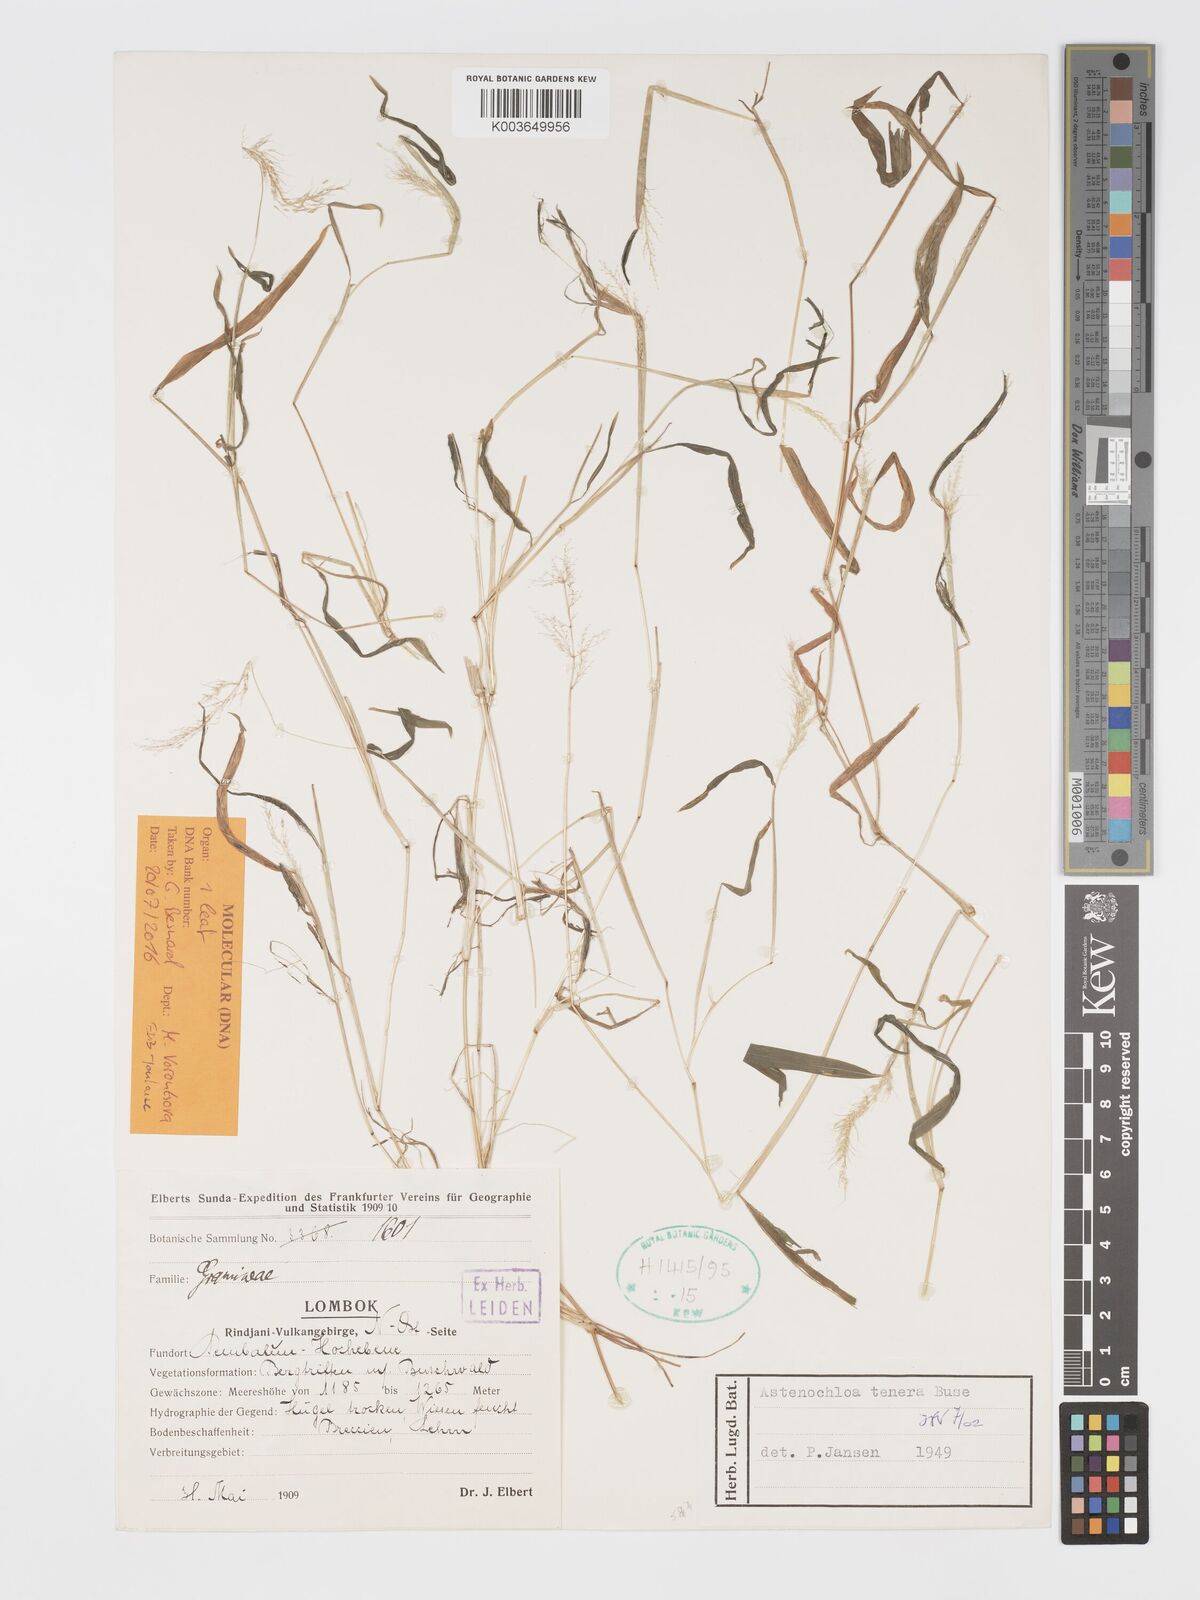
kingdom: Plantae
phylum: Tracheophyta
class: Liliopsida
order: Poales
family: Poaceae
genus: Asthenochloa
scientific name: Asthenochloa tenera
